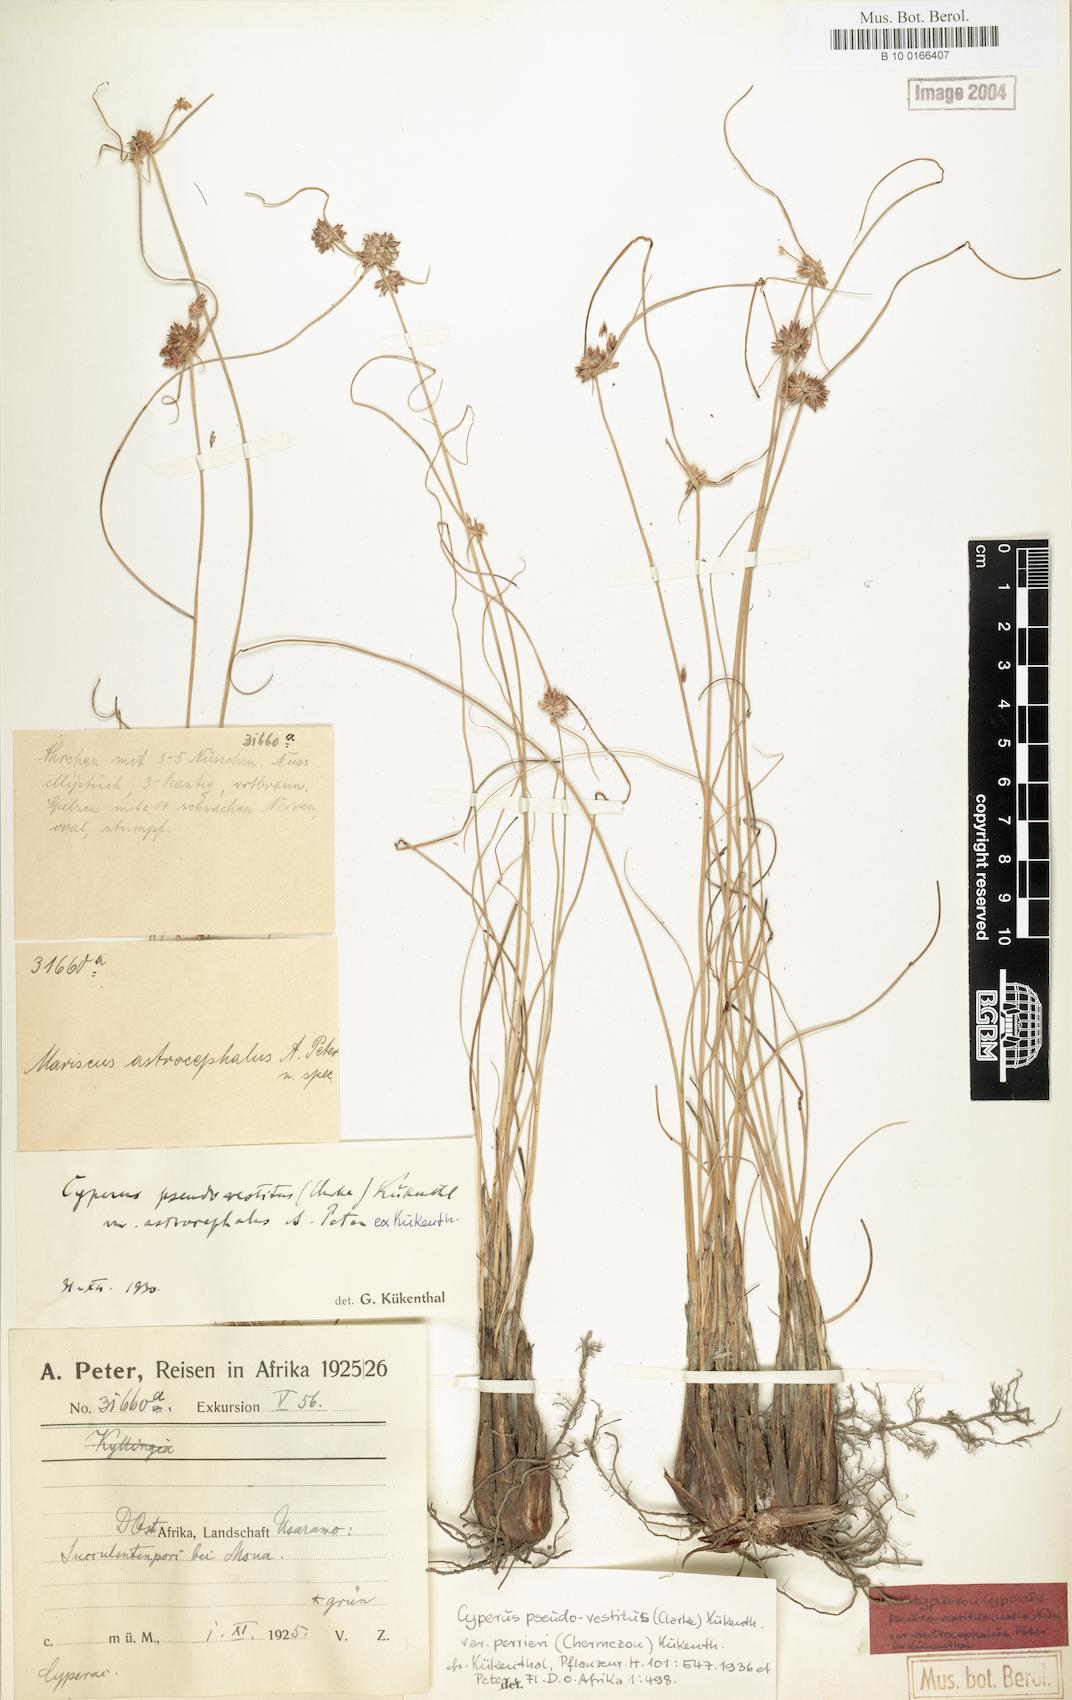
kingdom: Plantae
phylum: Tracheophyta
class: Liliopsida
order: Poales
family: Cyperaceae
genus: Cyperus
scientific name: Cyperus perrieri
